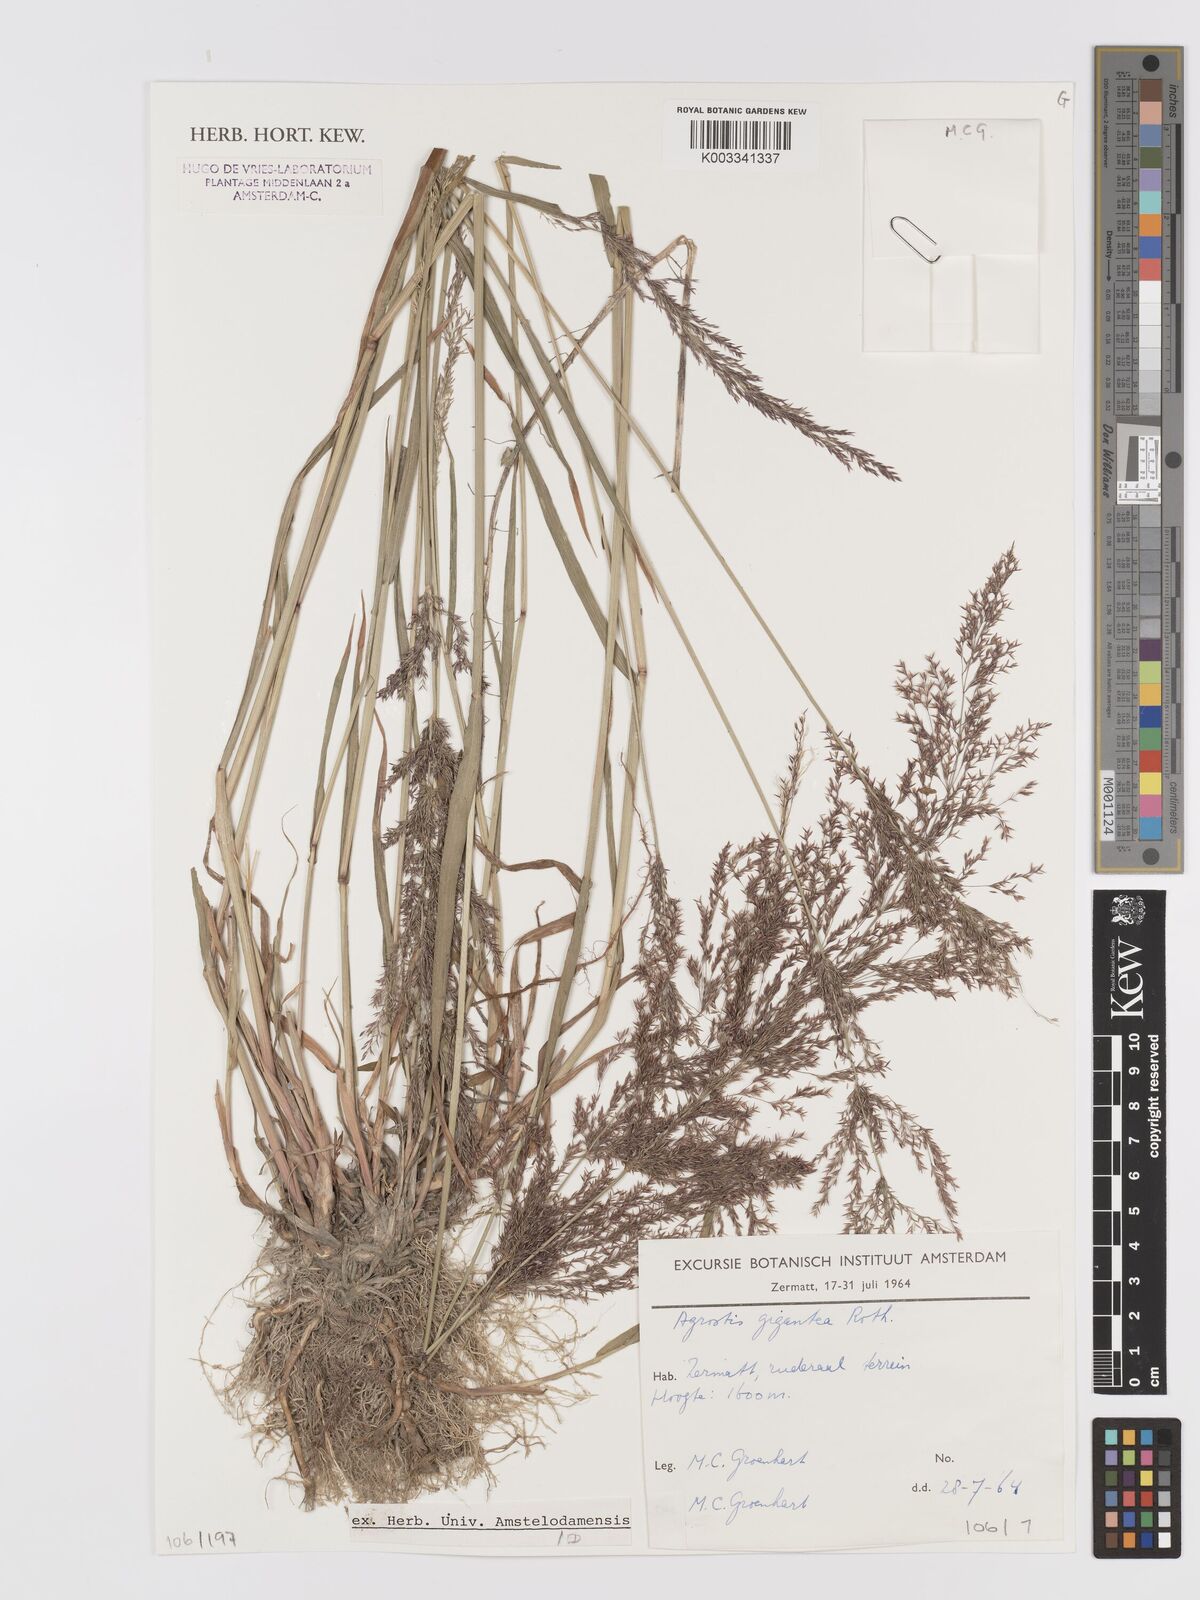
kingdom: Plantae
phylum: Tracheophyta
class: Liliopsida
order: Poales
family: Poaceae
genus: Agrostis
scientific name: Agrostis gigantea
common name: Black bent
